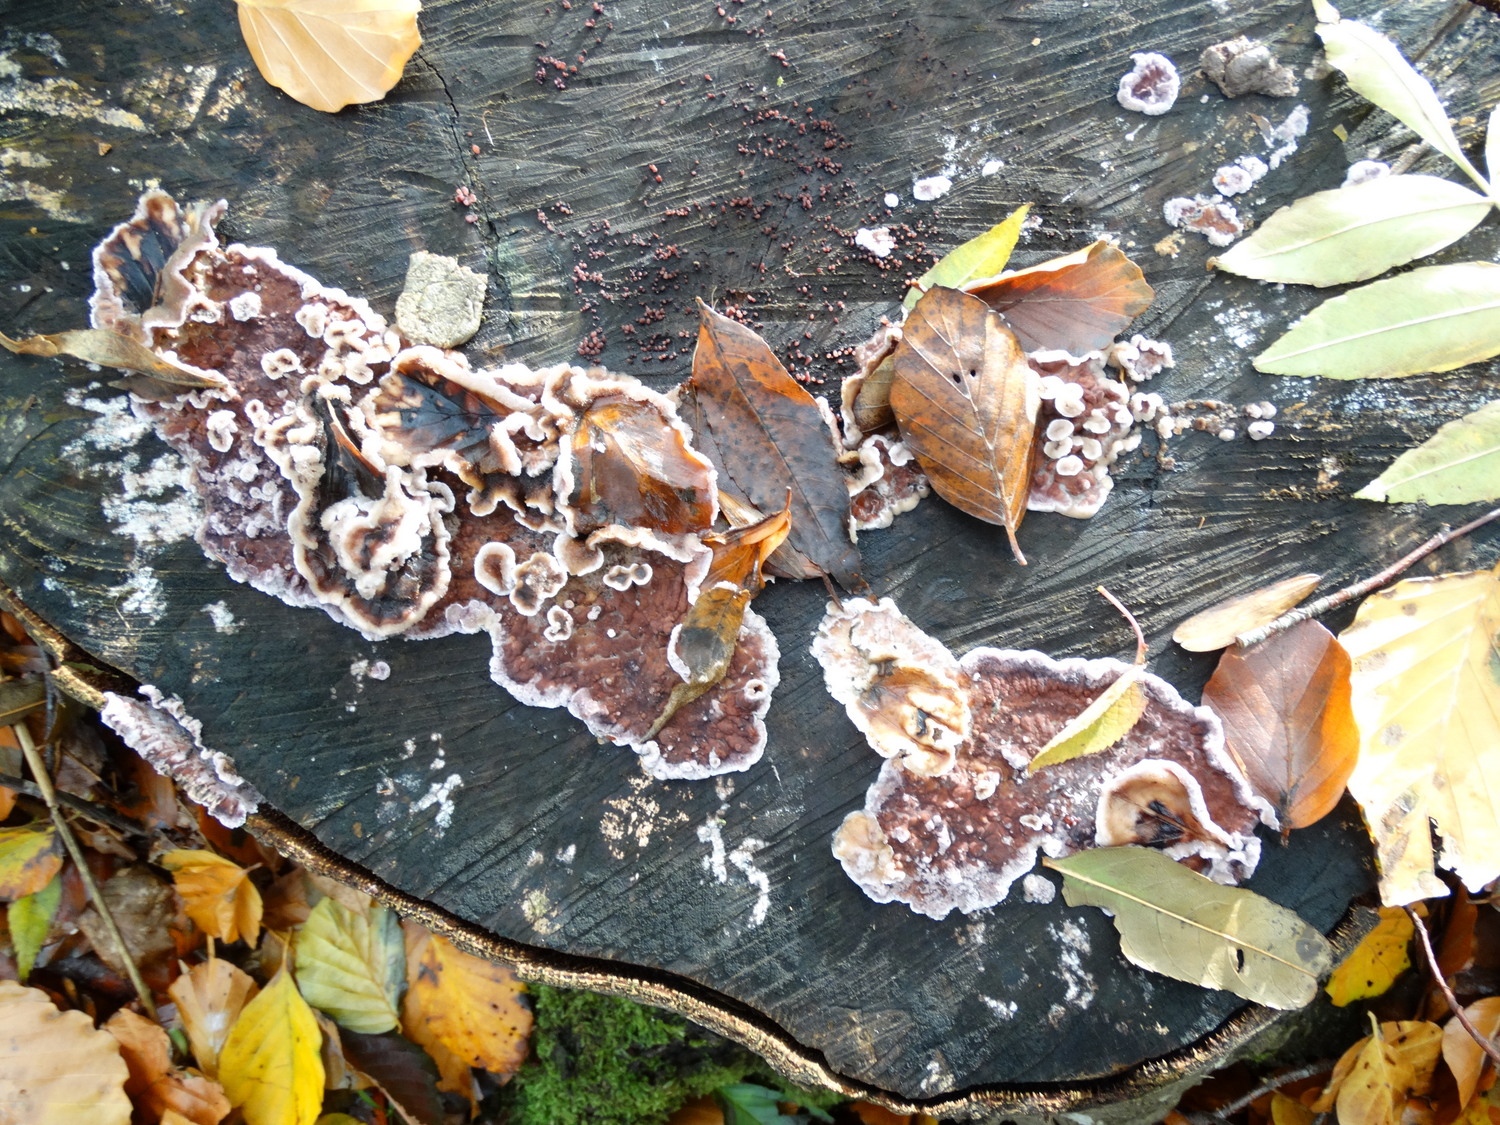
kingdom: Fungi
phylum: Basidiomycota
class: Agaricomycetes
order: Agaricales
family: Cyphellaceae
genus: Chondrostereum
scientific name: Chondrostereum purpureum
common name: purpurlædersvamp
